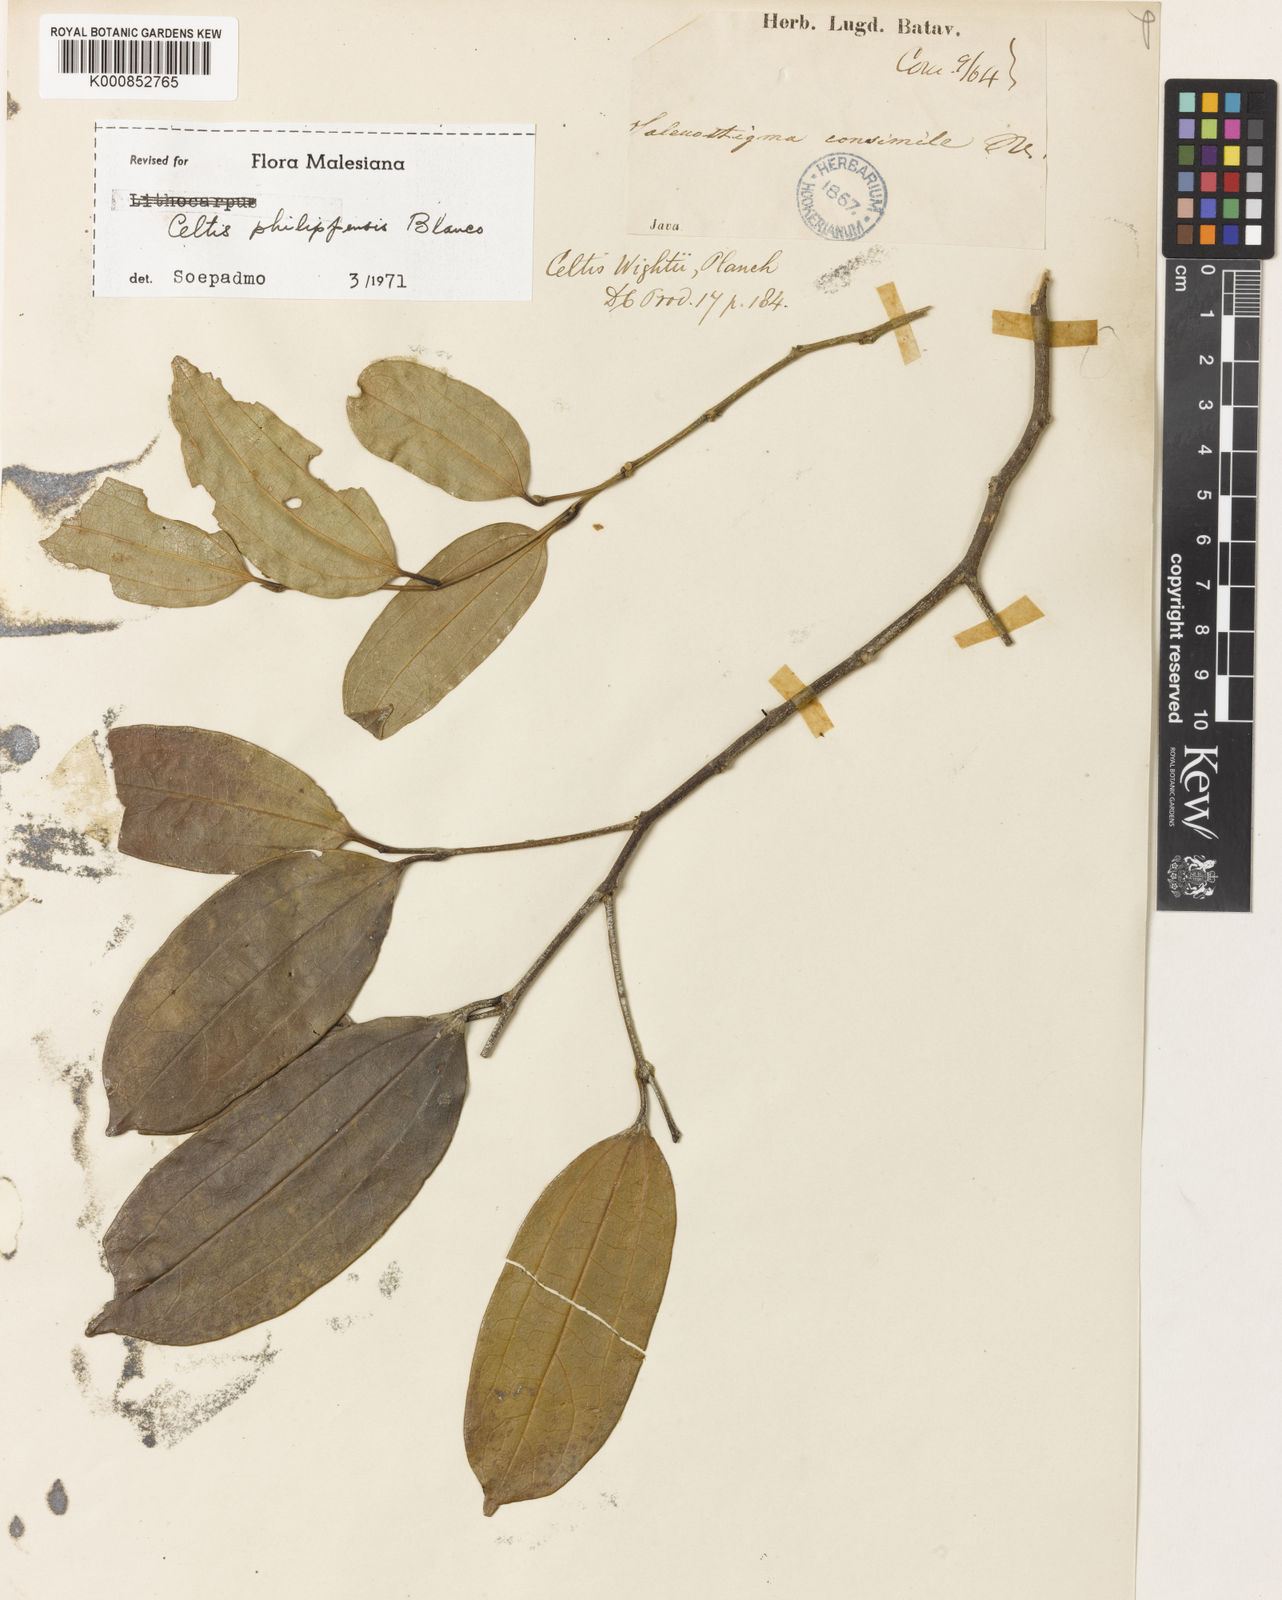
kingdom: Plantae
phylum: Tracheophyta
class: Magnoliopsida
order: Rosales
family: Cannabaceae
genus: Celtis
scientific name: Celtis philippensis
